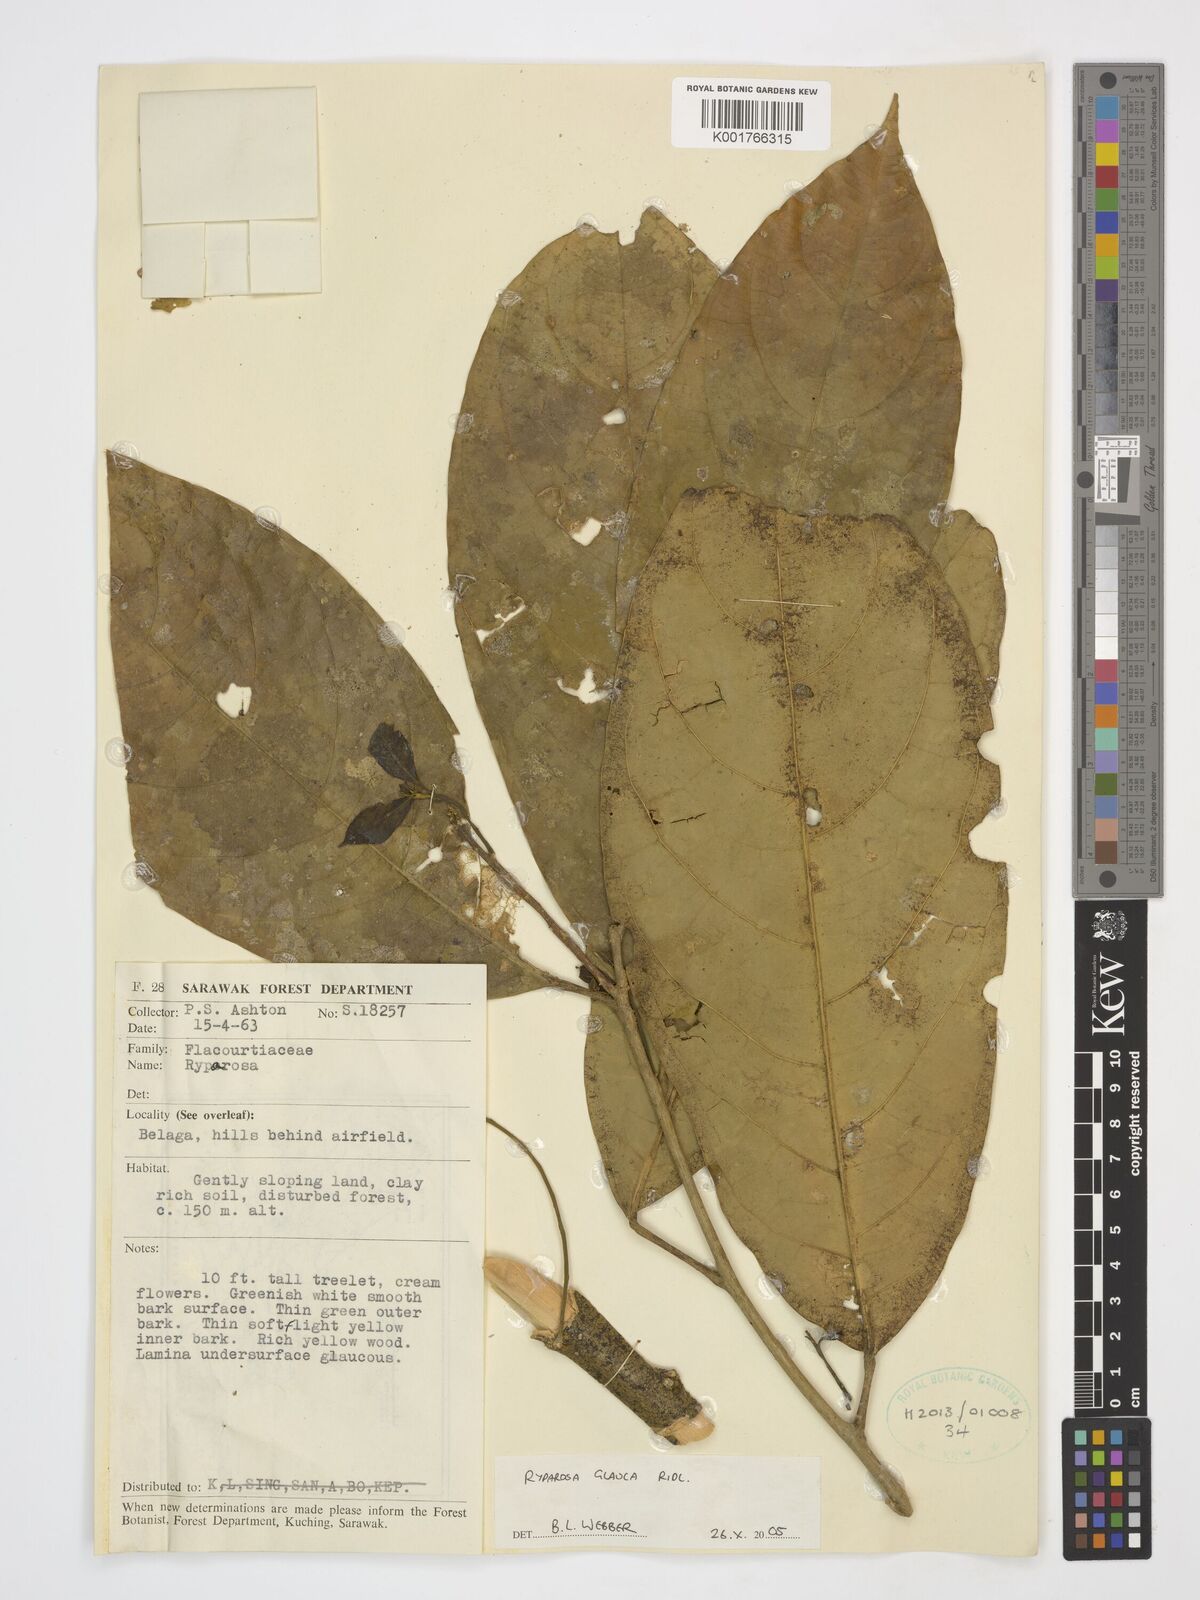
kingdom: Plantae
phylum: Tracheophyta
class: Magnoliopsida
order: Malpighiales
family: Achariaceae
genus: Ryparosa
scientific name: Ryparosa glauca
